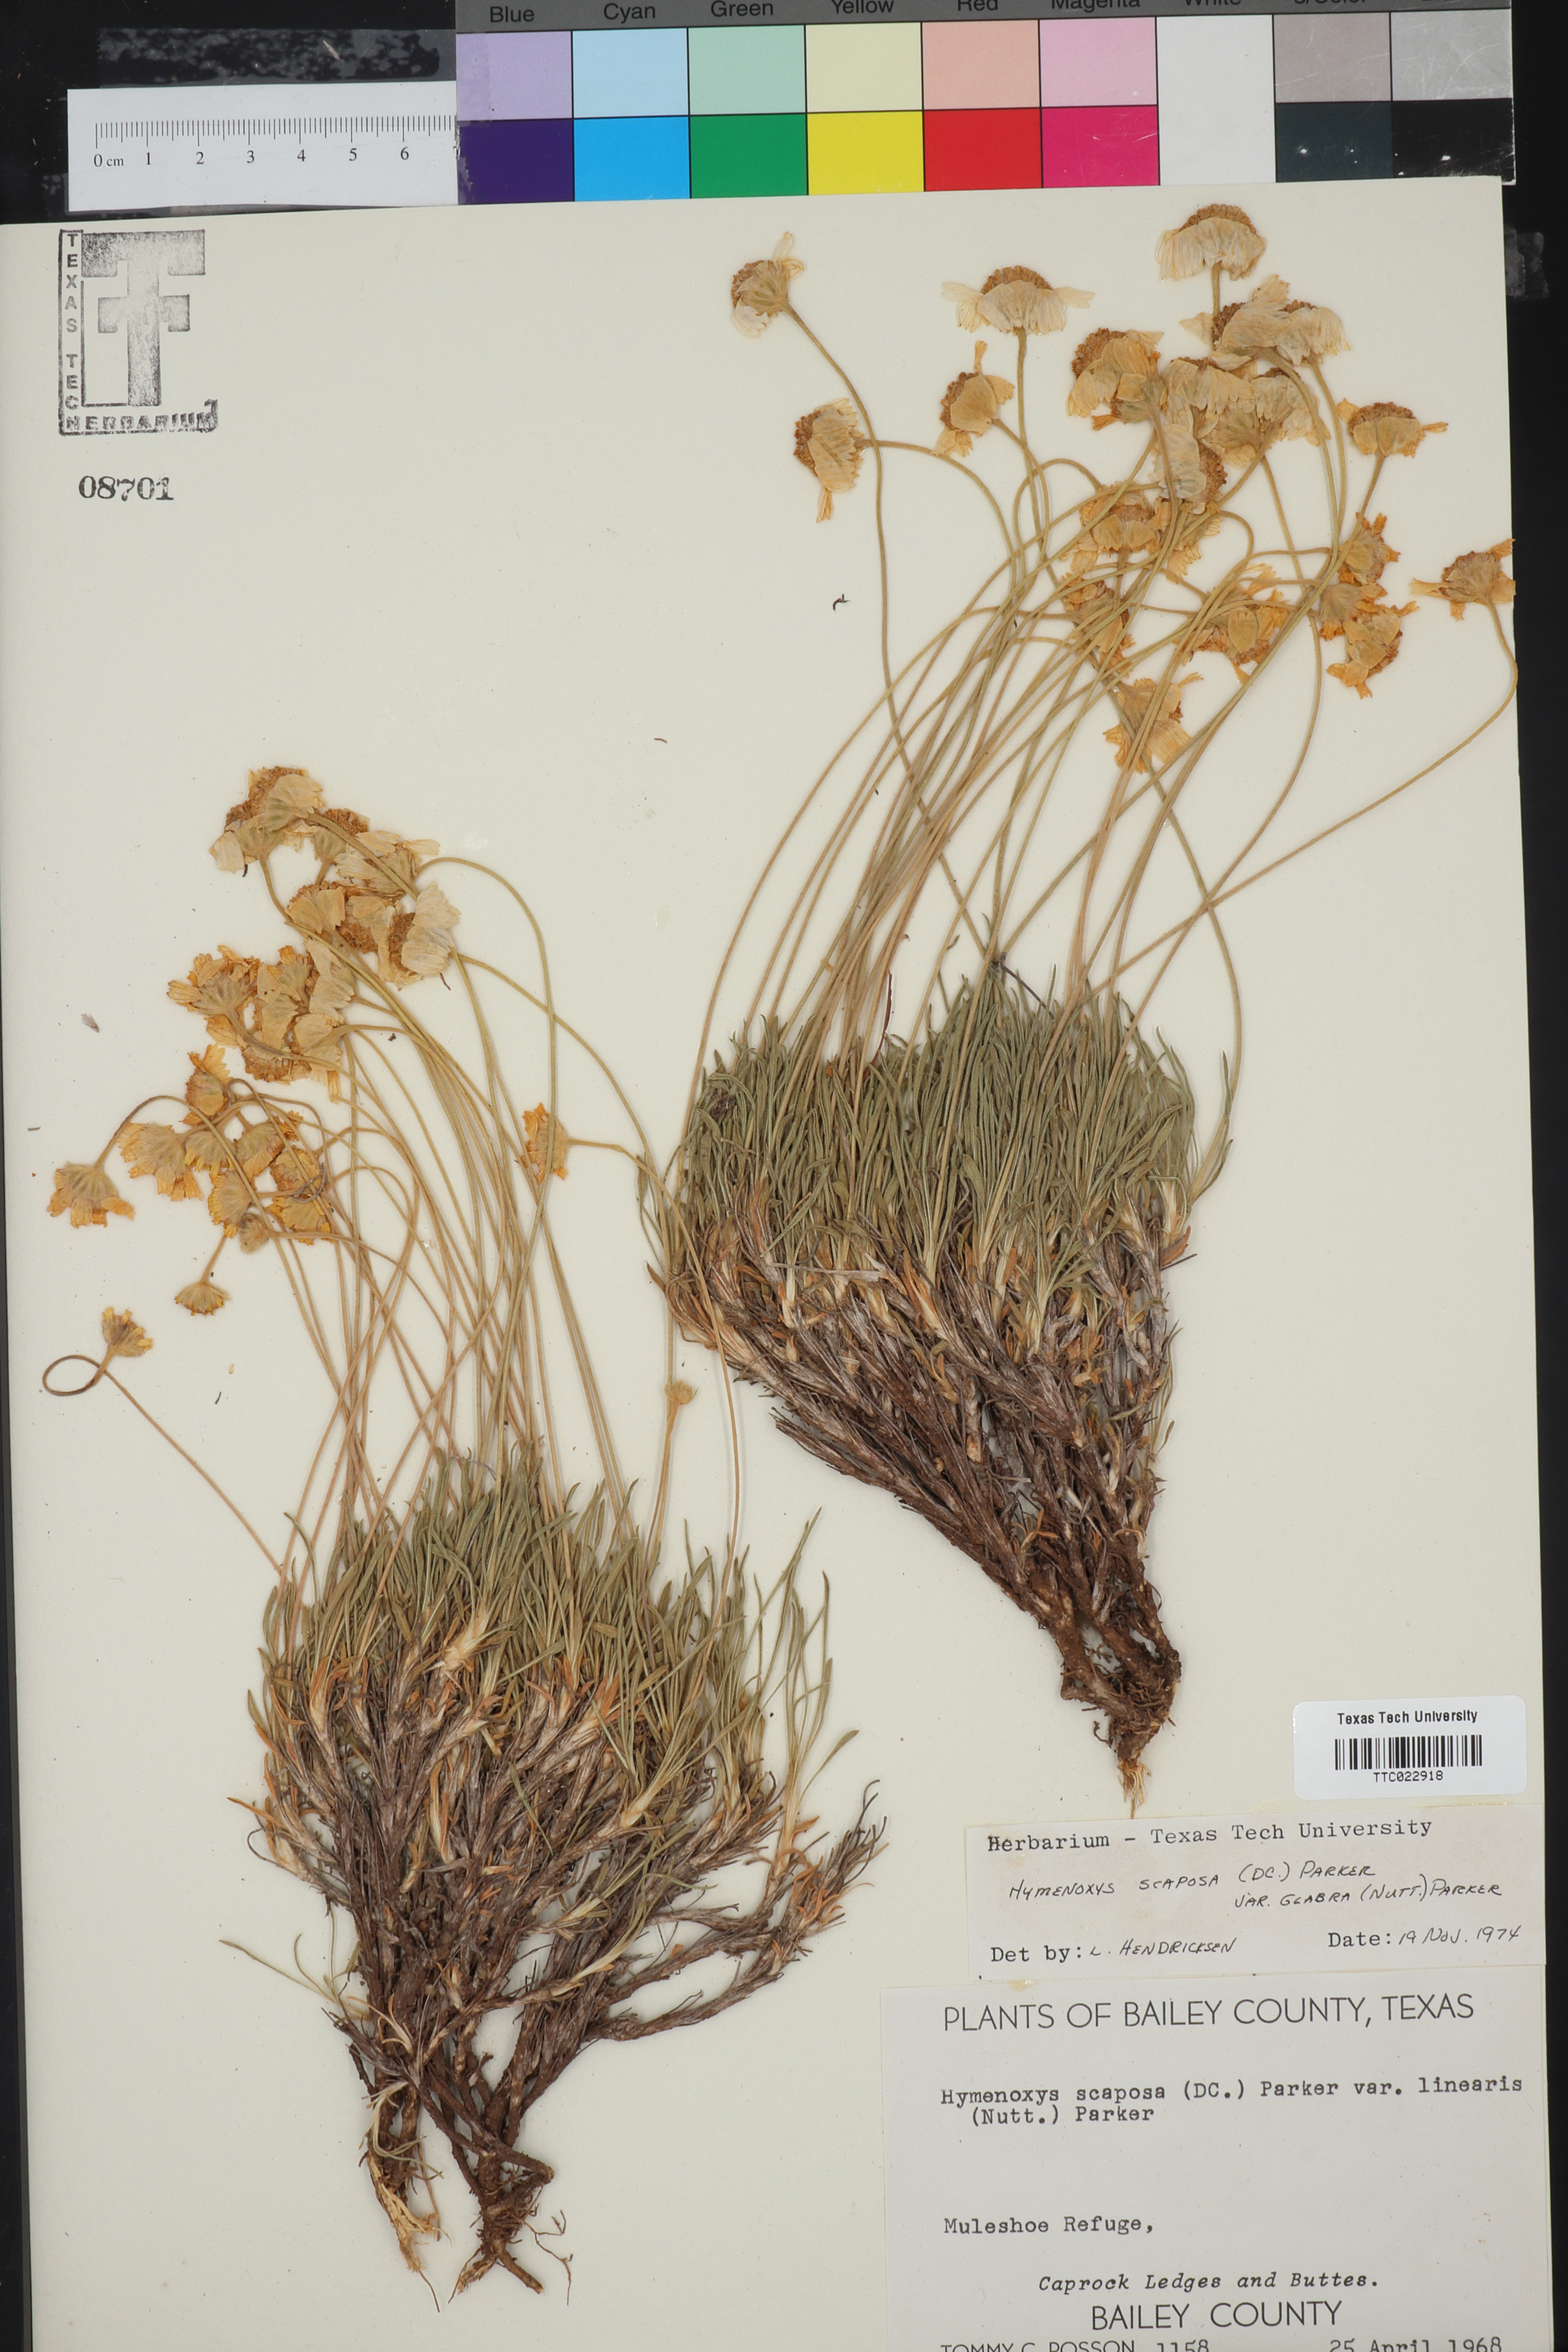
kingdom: Plantae
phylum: Tracheophyta
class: Magnoliopsida
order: Asterales
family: Asteraceae
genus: Tetraneuris
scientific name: Tetraneuris scaposa
